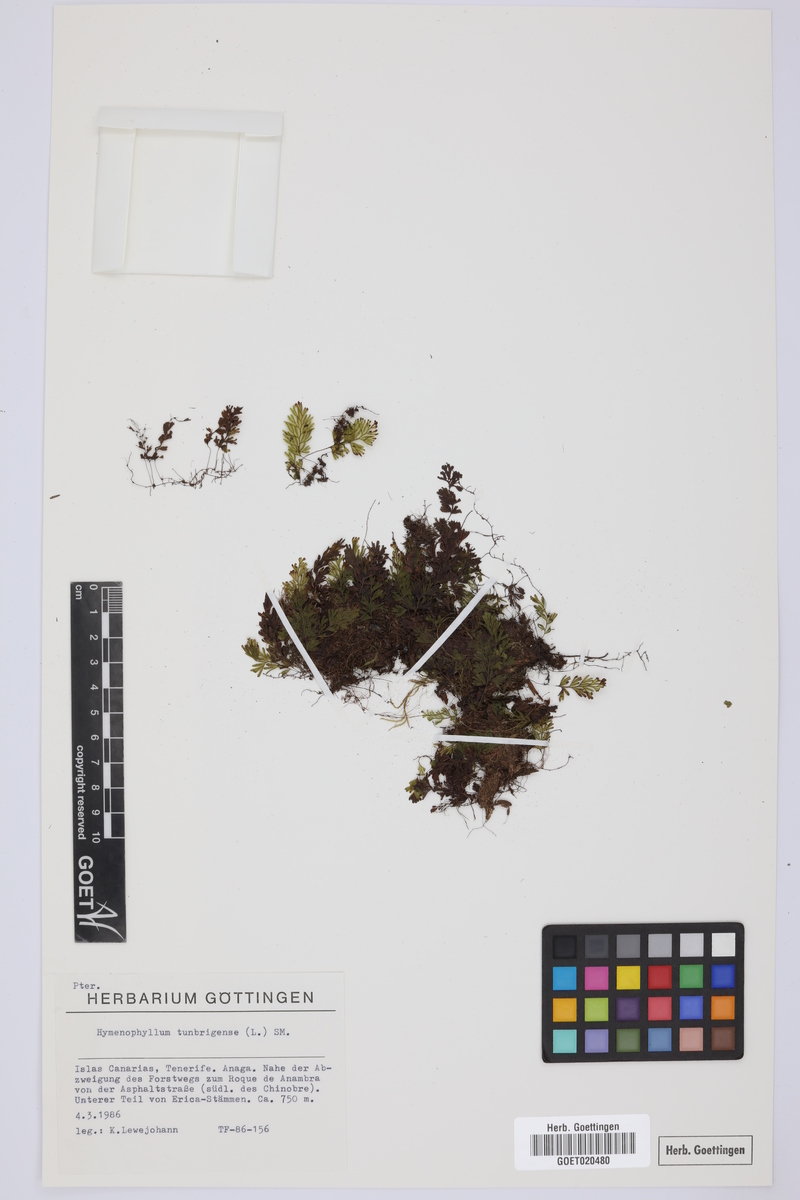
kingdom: Plantae
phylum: Tracheophyta
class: Polypodiopsida
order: Hymenophyllales
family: Hymenophyllaceae
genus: Hymenophyllum
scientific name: Hymenophyllum tunbrigense
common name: Tunbridge filmy fern
